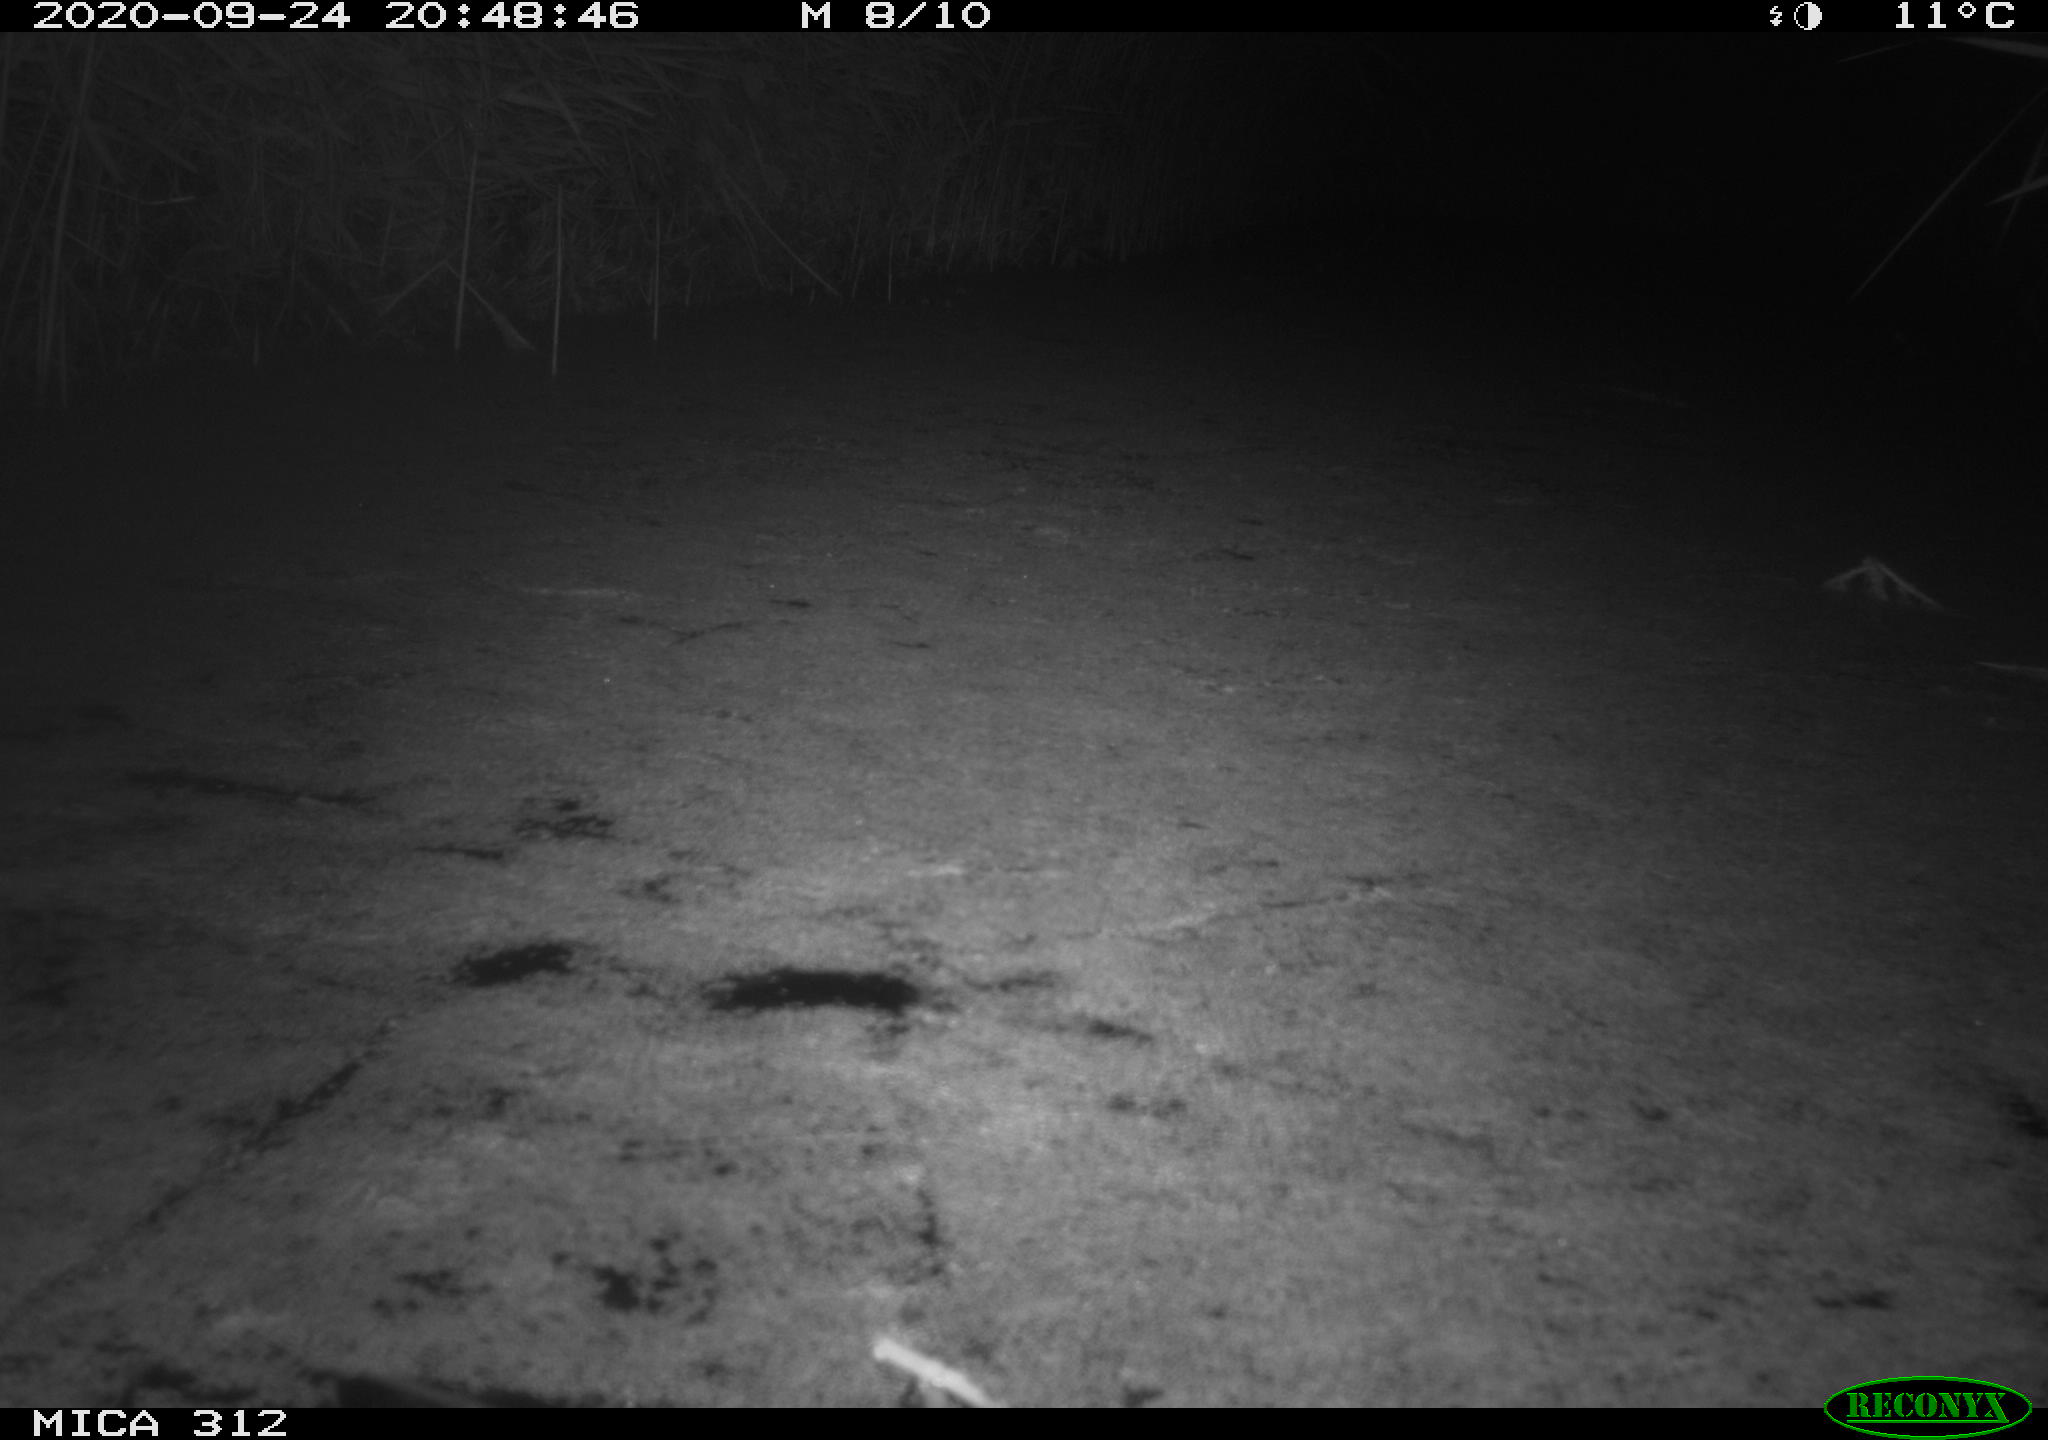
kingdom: Animalia
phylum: Chordata
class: Mammalia
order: Rodentia
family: Muridae
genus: Rattus
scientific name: Rattus norvegicus
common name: Brown rat
